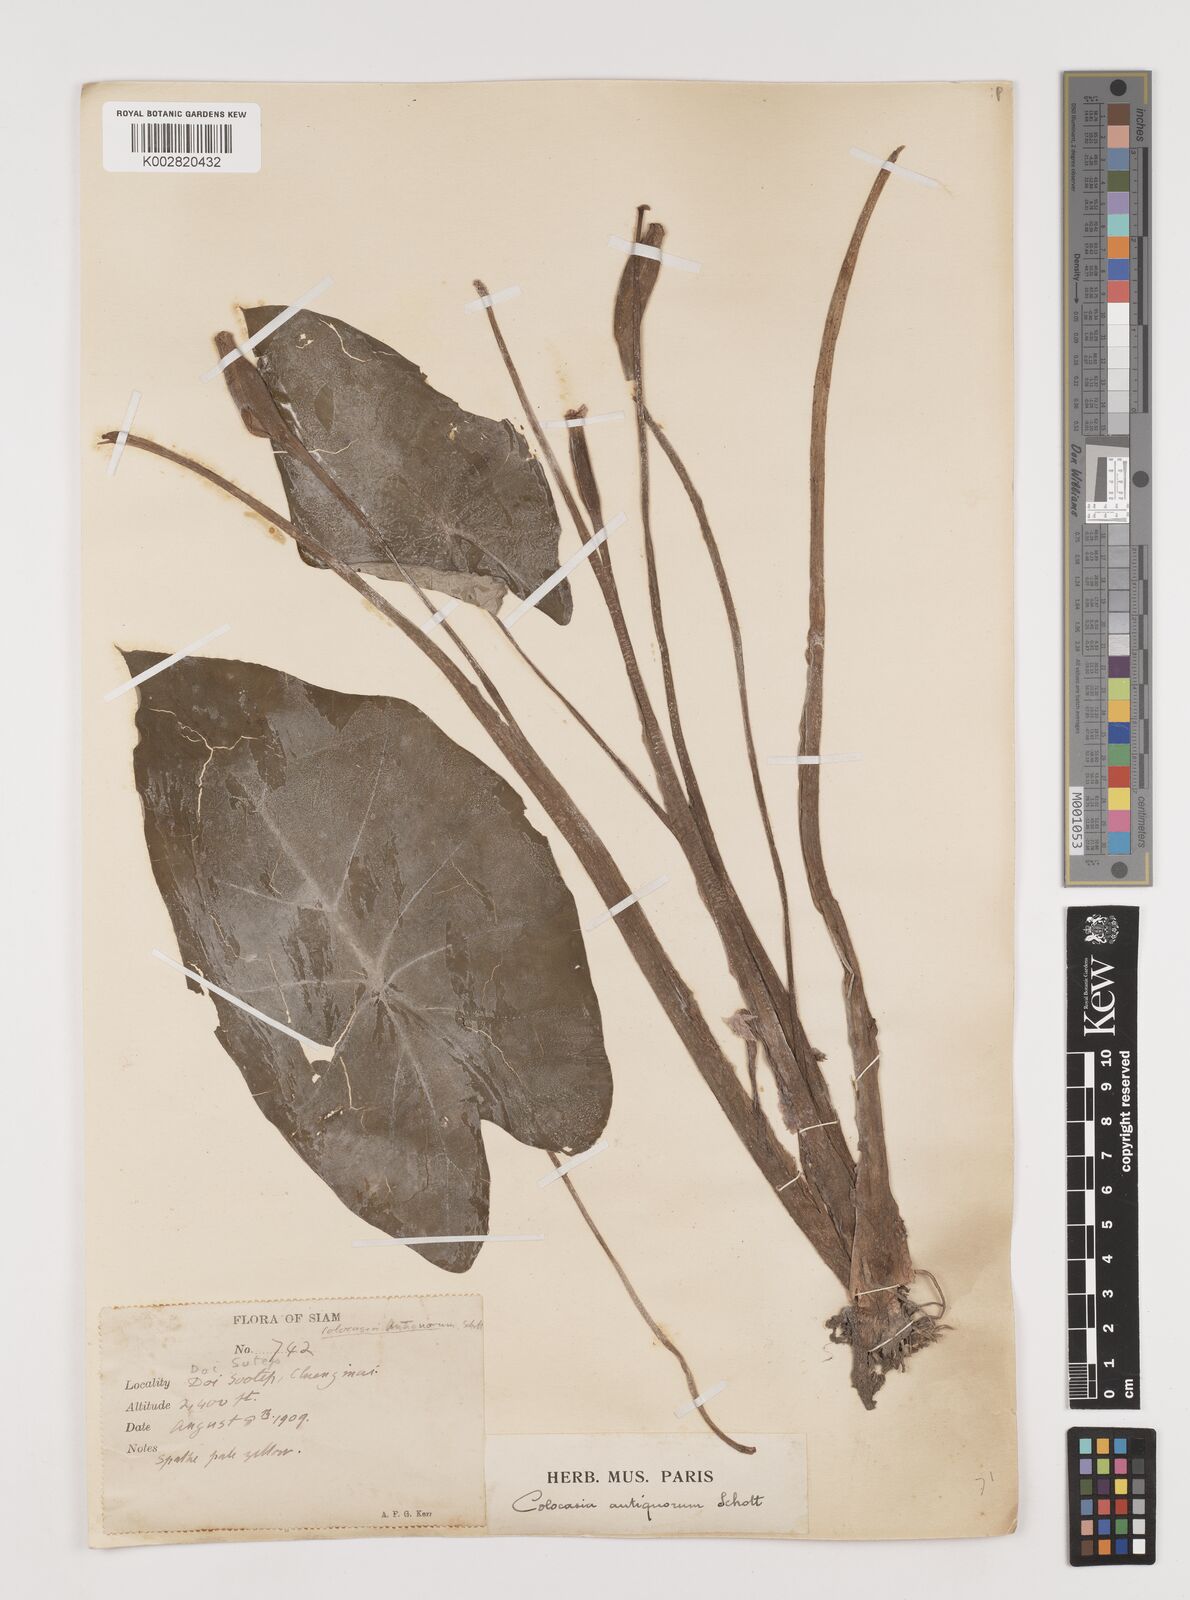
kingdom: Plantae
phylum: Tracheophyta
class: Liliopsida
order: Alismatales
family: Araceae
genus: Colocasia
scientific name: Colocasia esculenta
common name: Taro
